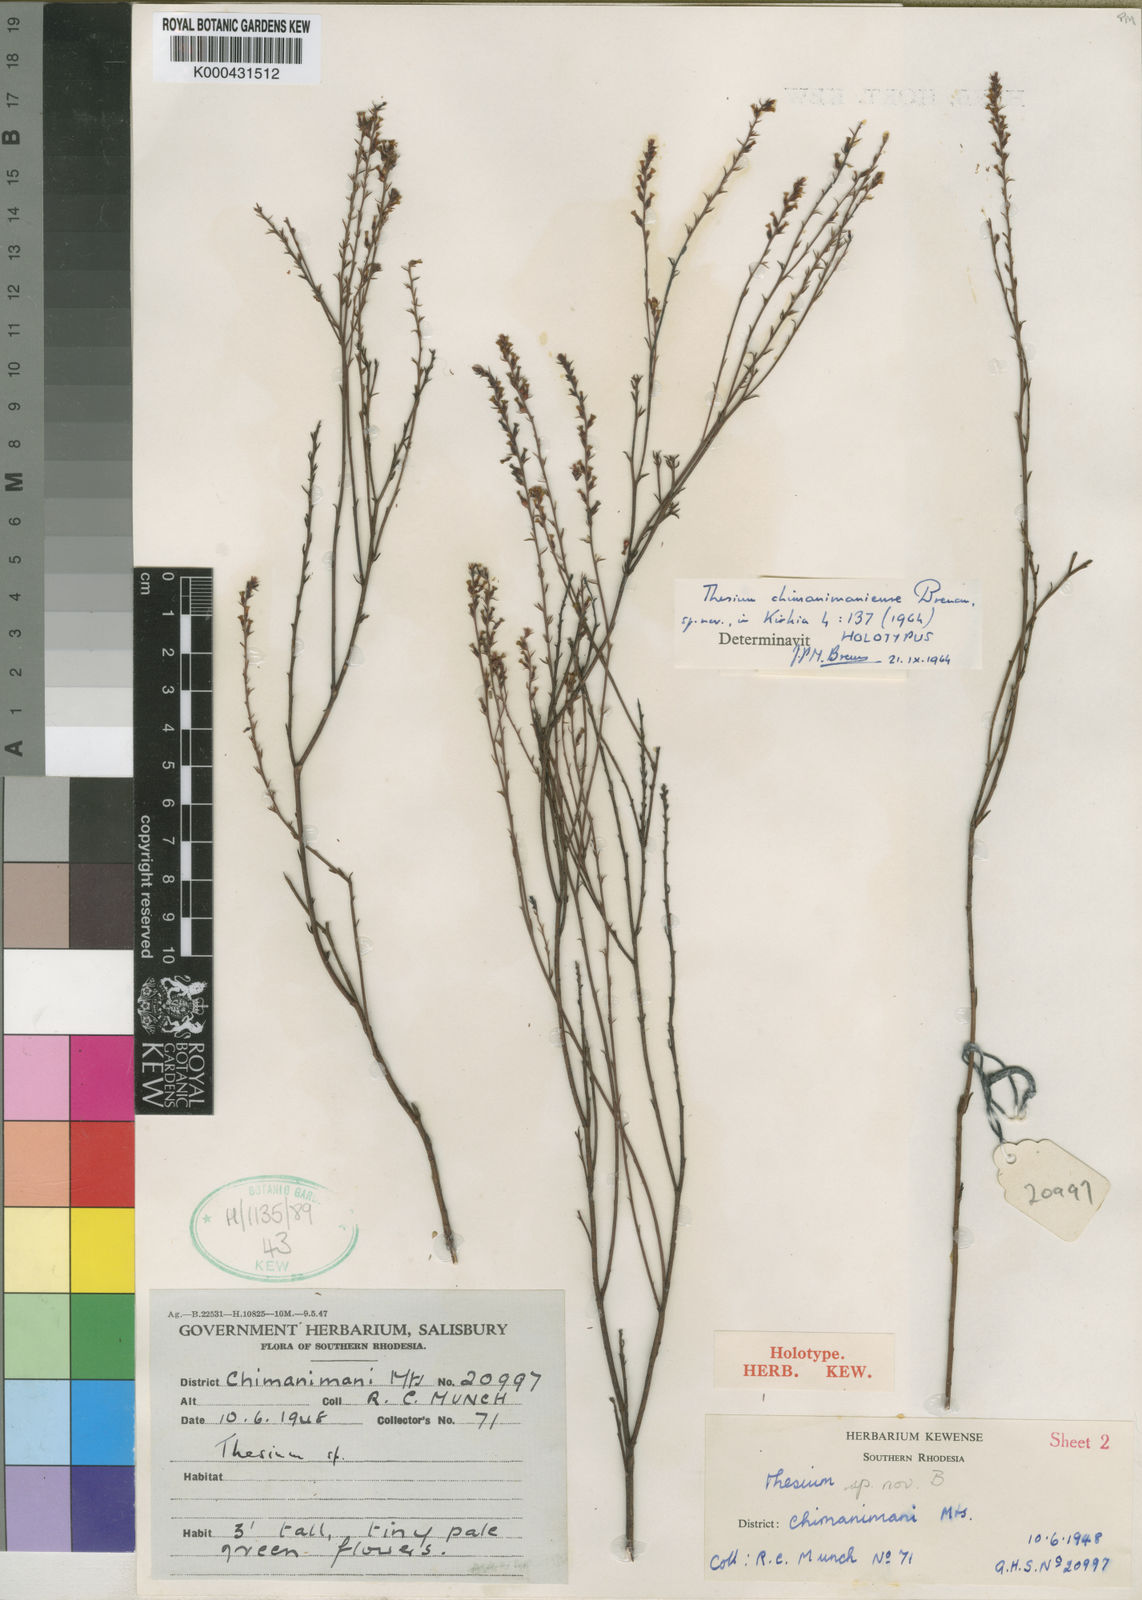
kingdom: Plantae
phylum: Tracheophyta
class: Magnoliopsida
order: Santalales
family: Thesiaceae
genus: Thesium
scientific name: Thesium chimanimaniense
